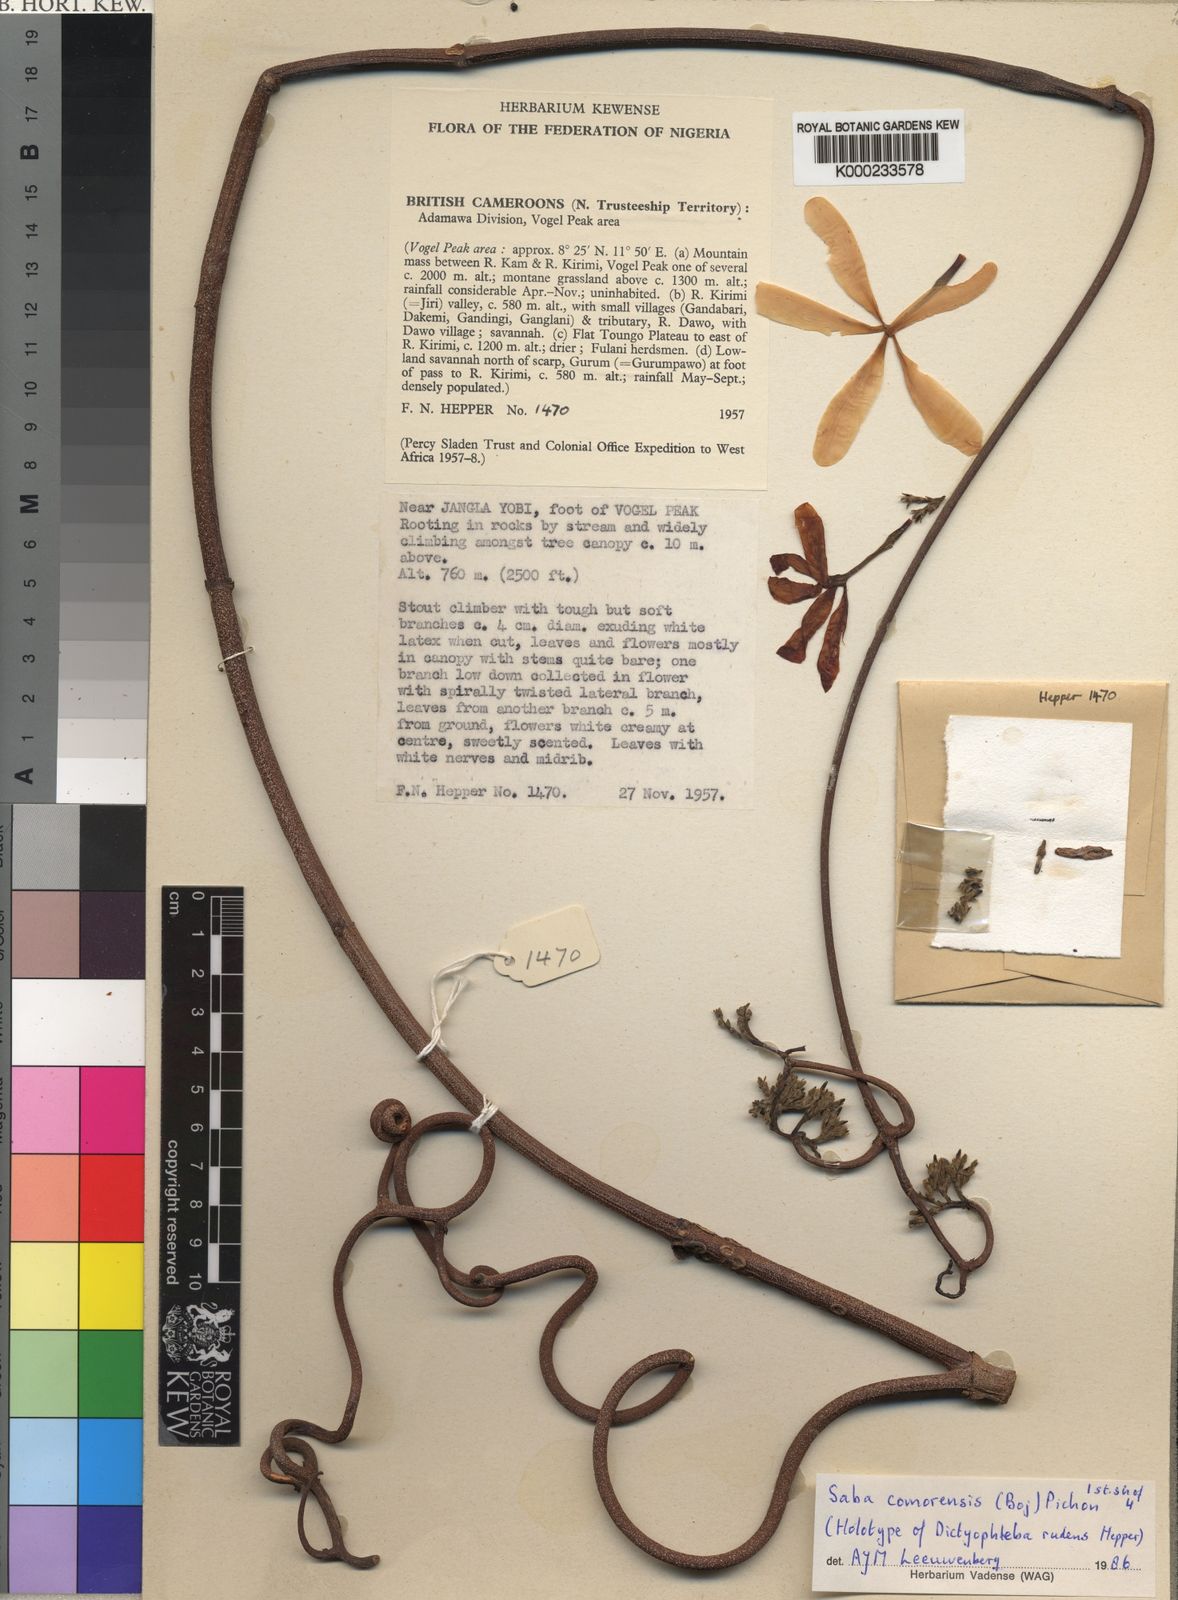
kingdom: Plantae
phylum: Tracheophyta
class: Magnoliopsida
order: Gentianales
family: Apocynaceae
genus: Saba
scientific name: Saba comorensis
